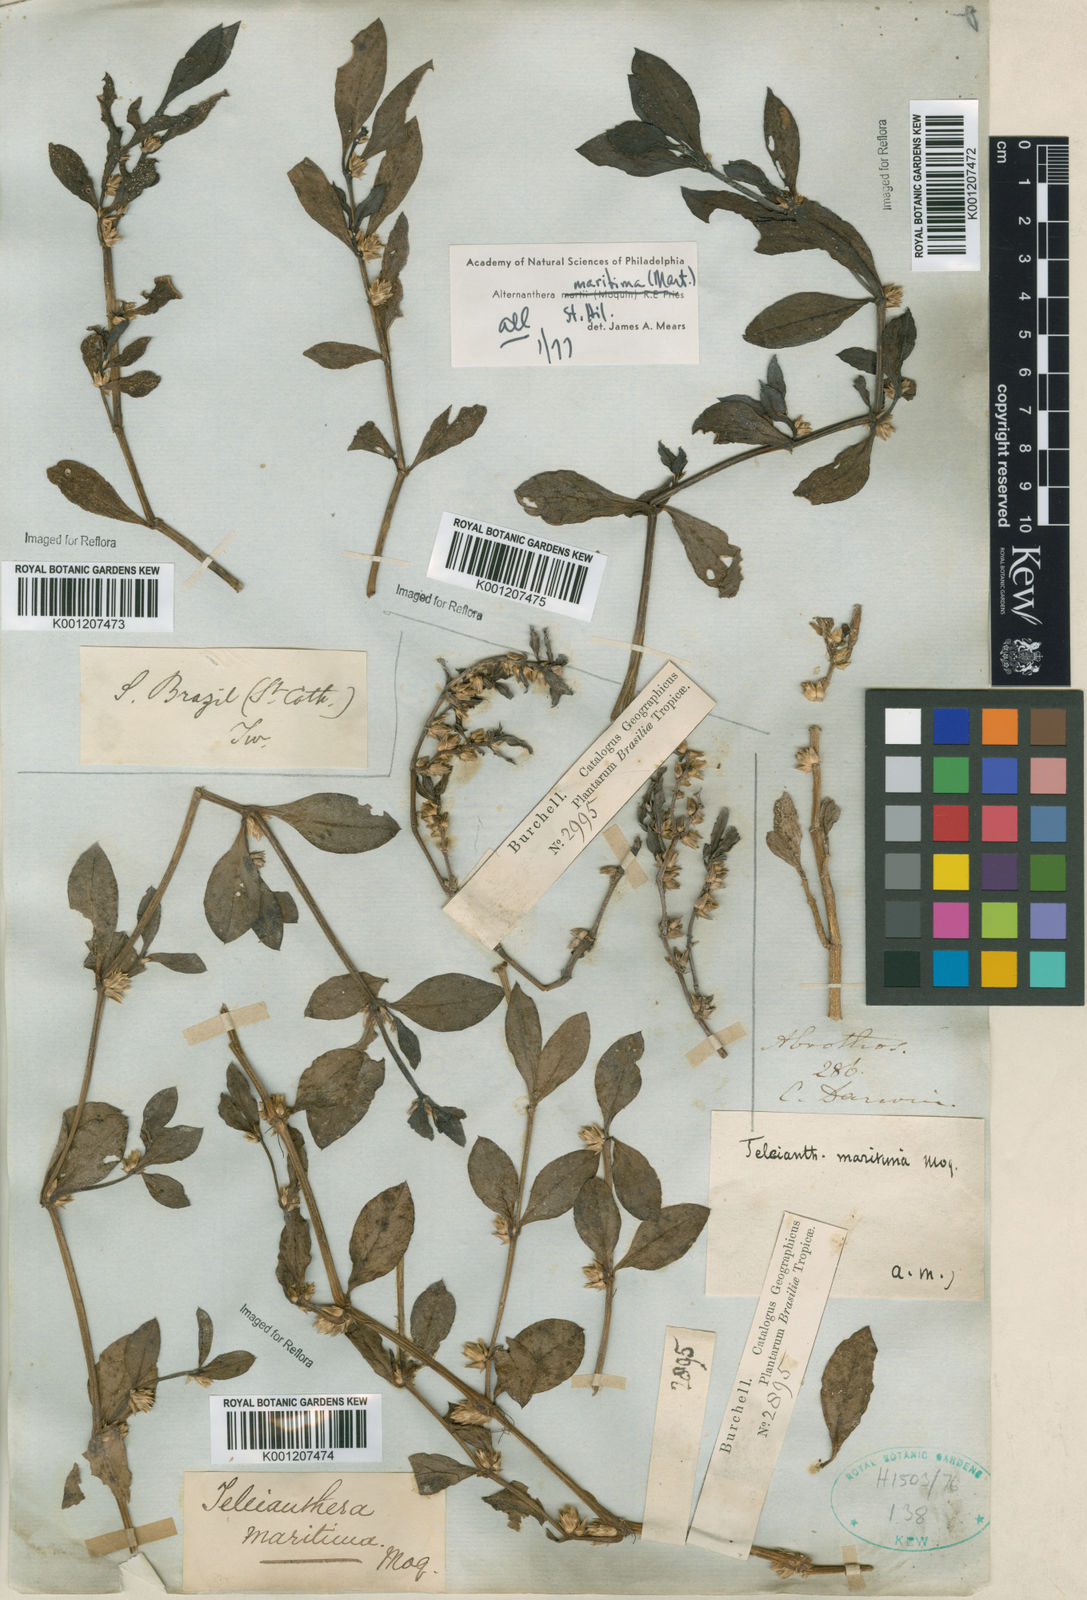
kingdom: Plantae
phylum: Tracheophyta
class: Magnoliopsida
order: Caryophyllales
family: Amaranthaceae
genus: Alternanthera
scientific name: Alternanthera littoralis
